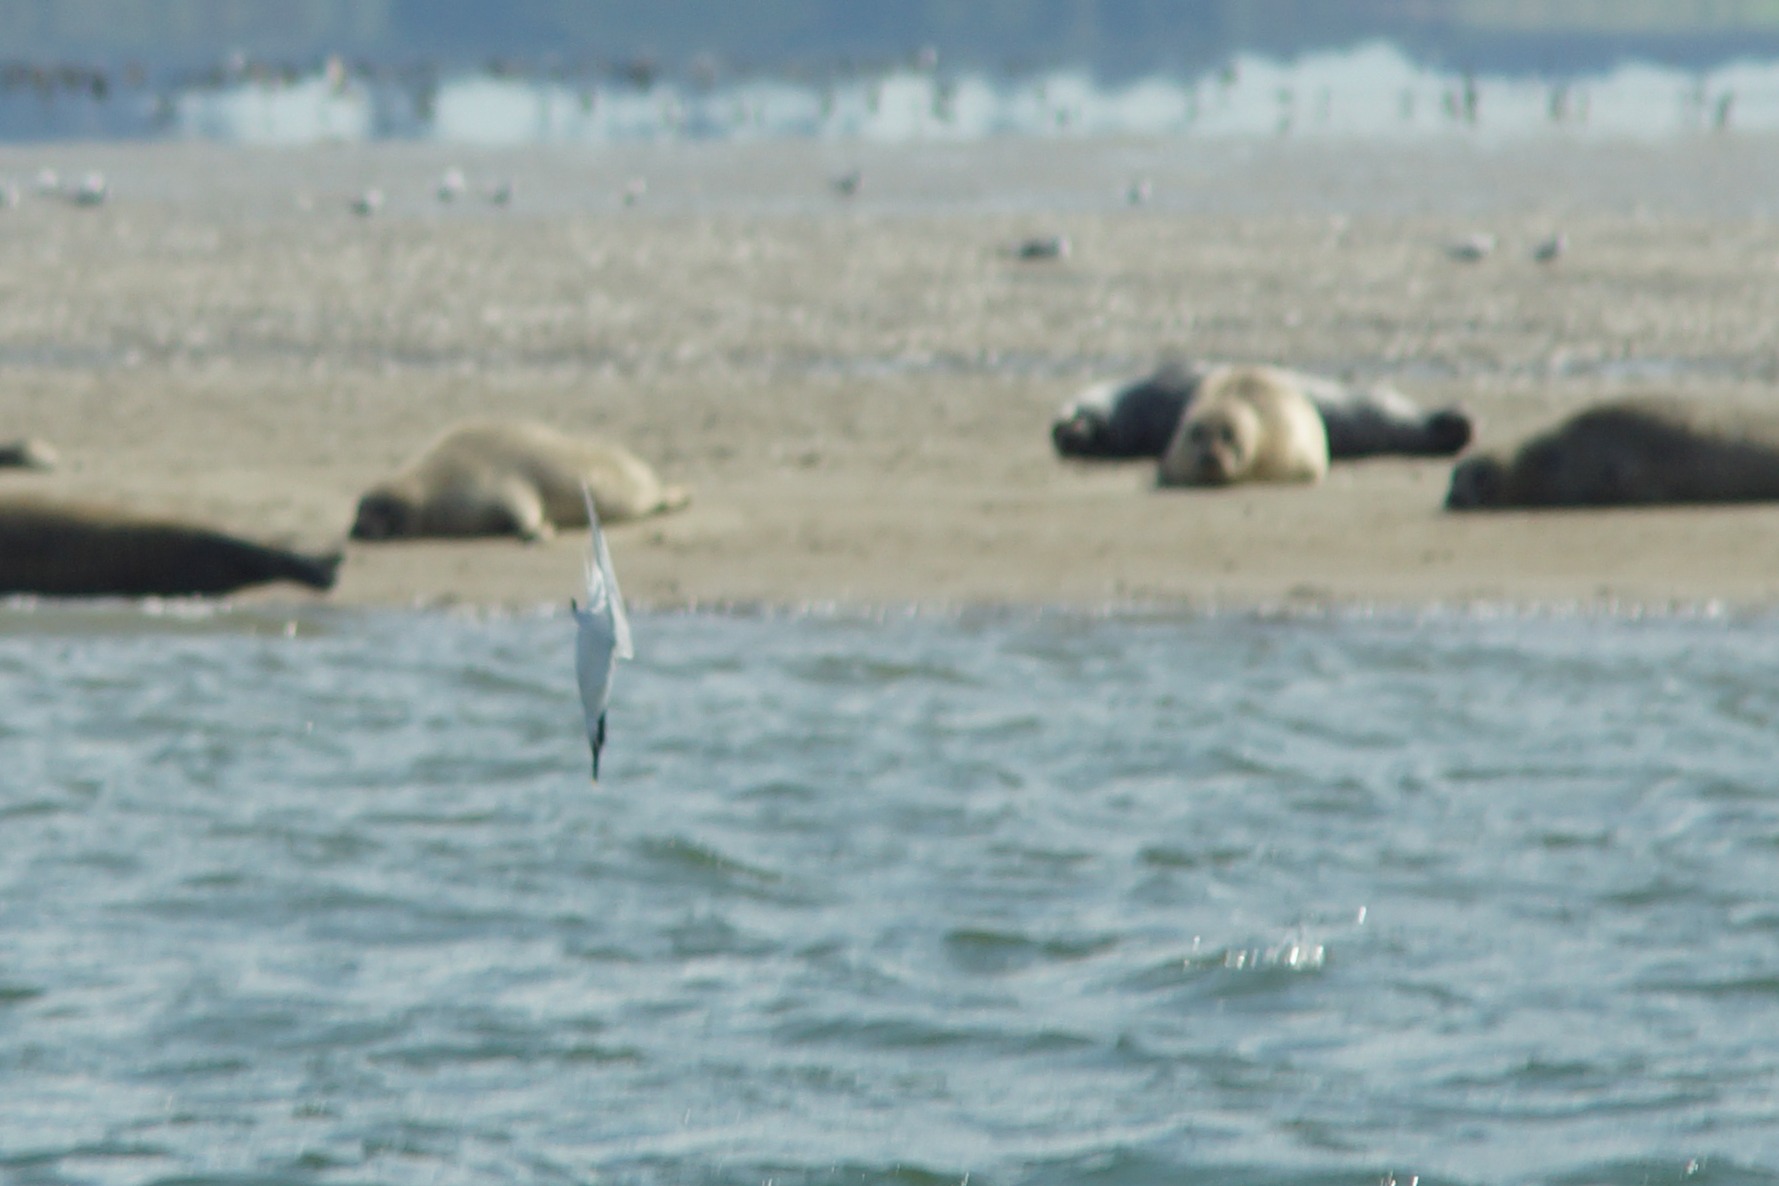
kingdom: Animalia
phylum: Chordata
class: Aves
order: Charadriiformes
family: Laridae
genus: Thalasseus
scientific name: Thalasseus sandvicensis
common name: Splitterne
